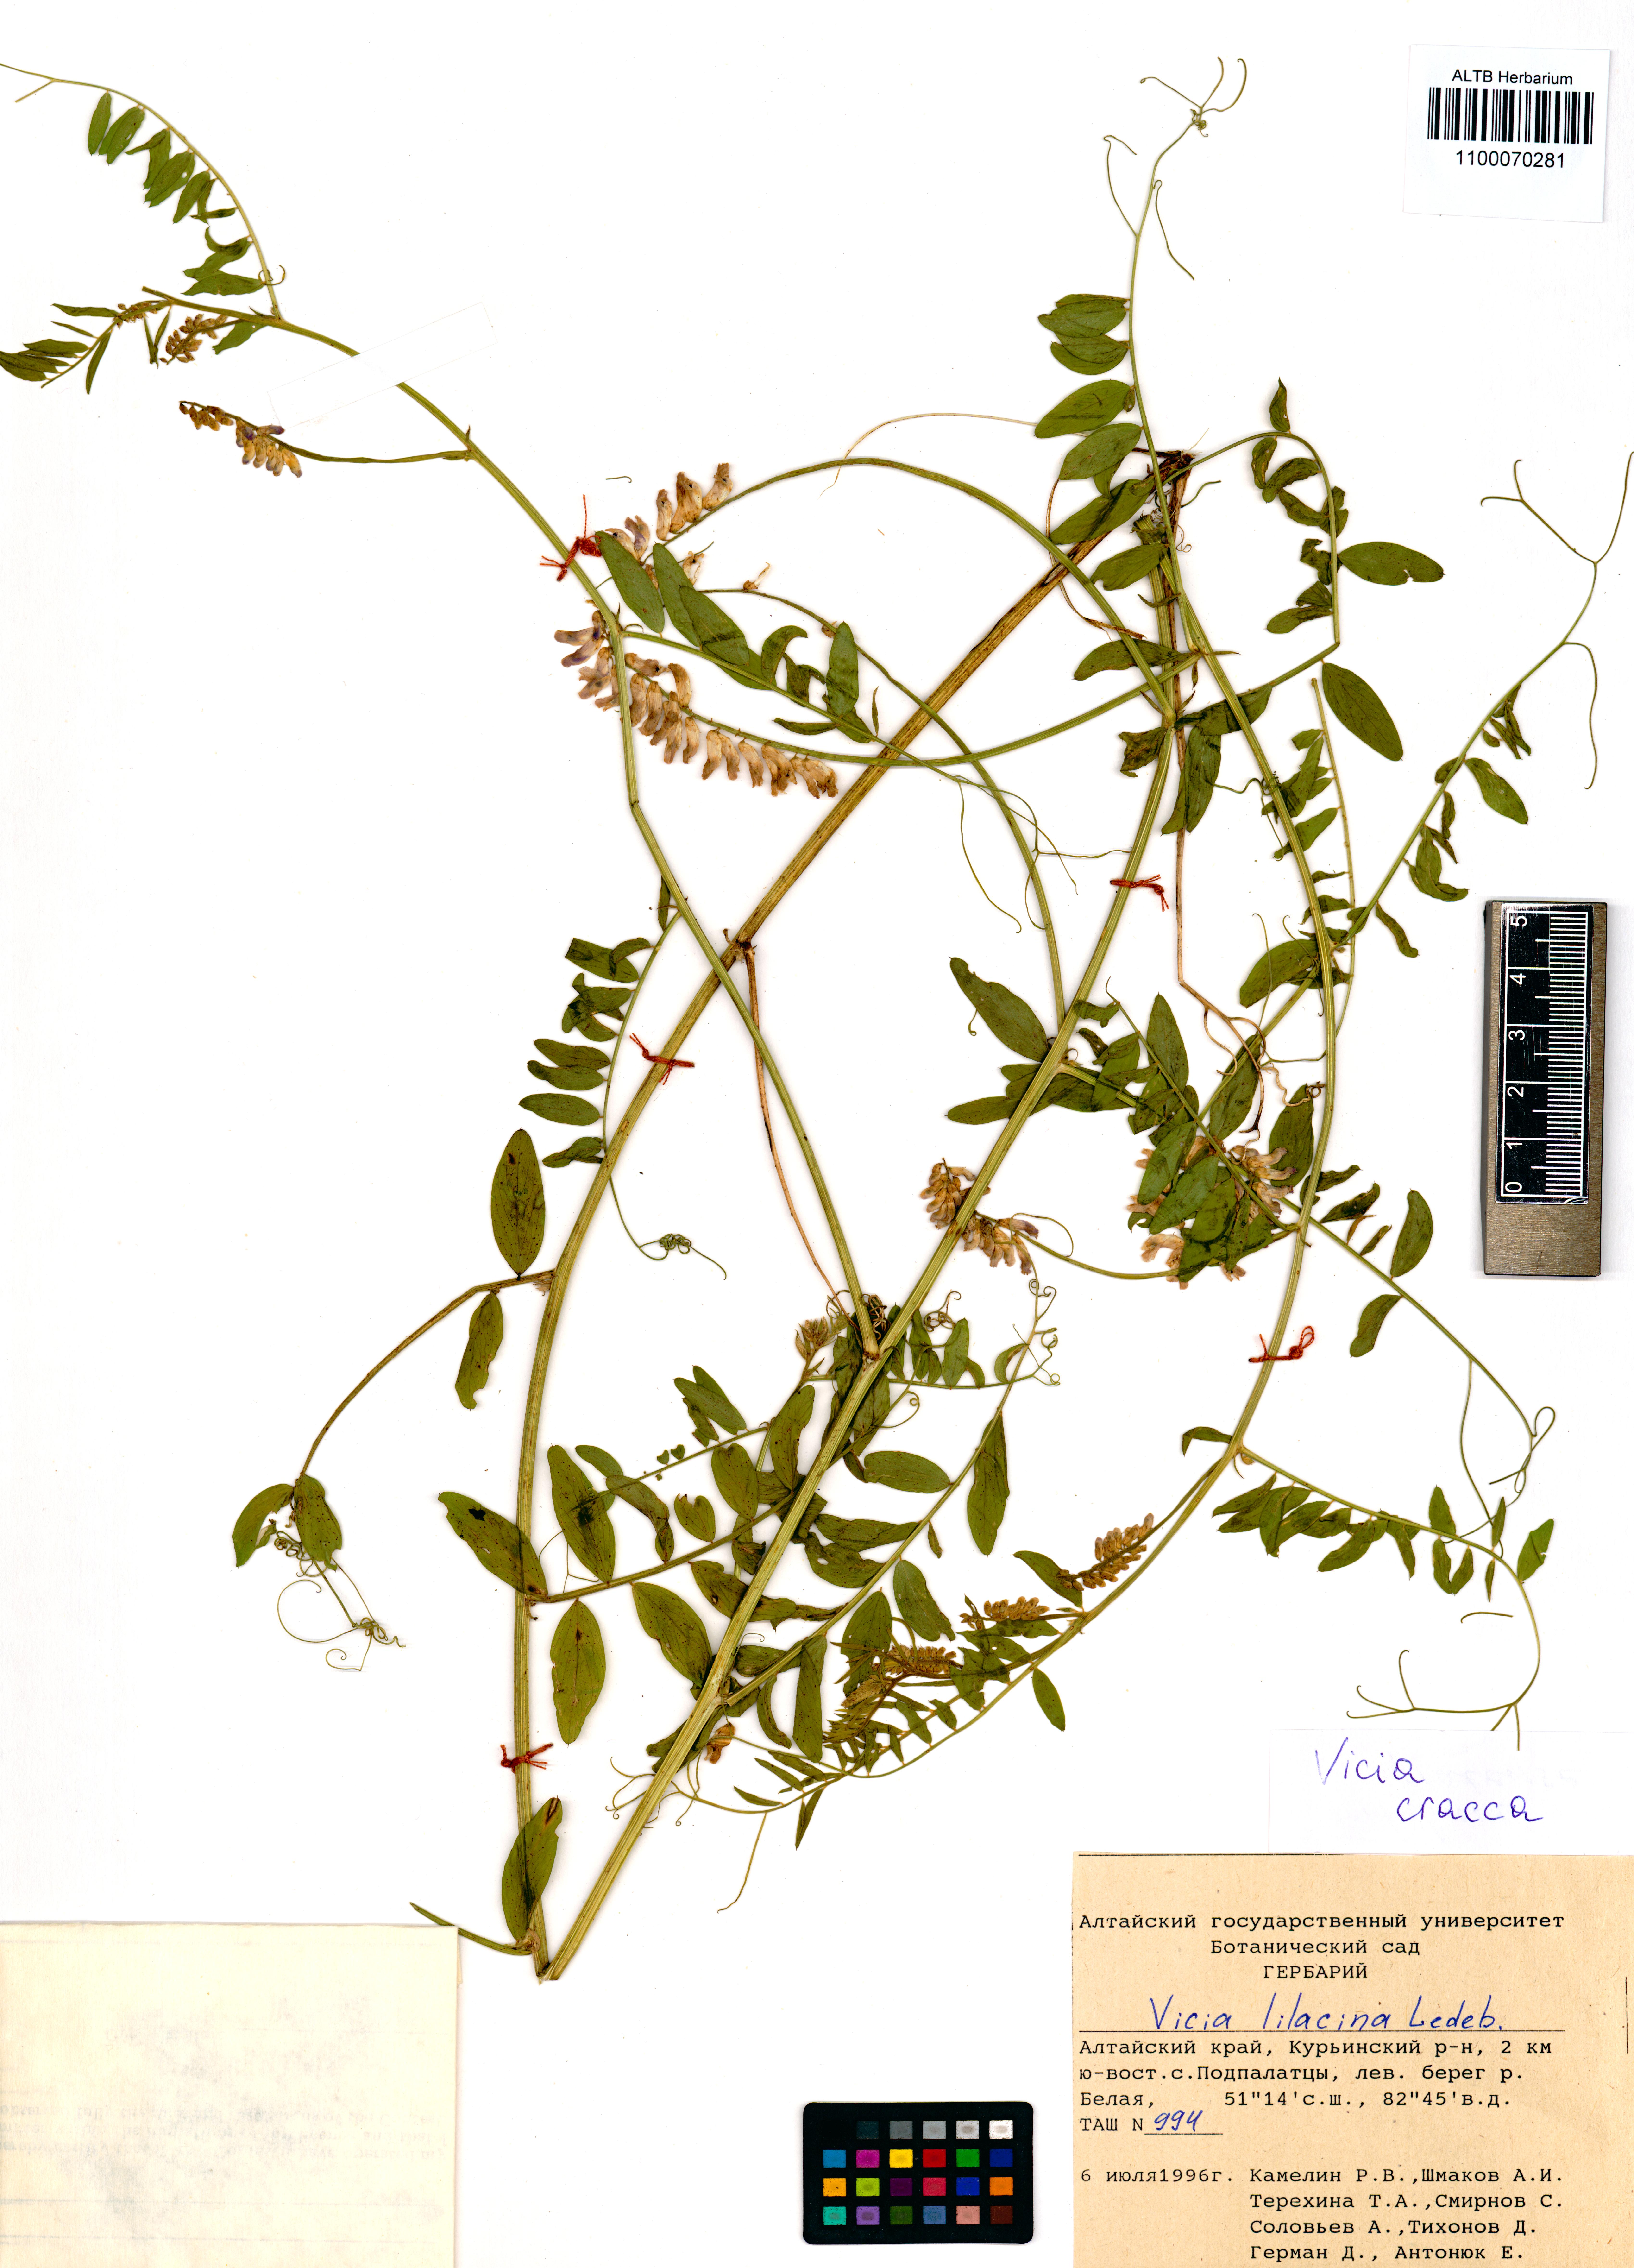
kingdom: Plantae
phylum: Tracheophyta
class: Magnoliopsida
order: Fabales
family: Fabaceae
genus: Vicia
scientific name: Vicia cracca
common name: Bird vetch
